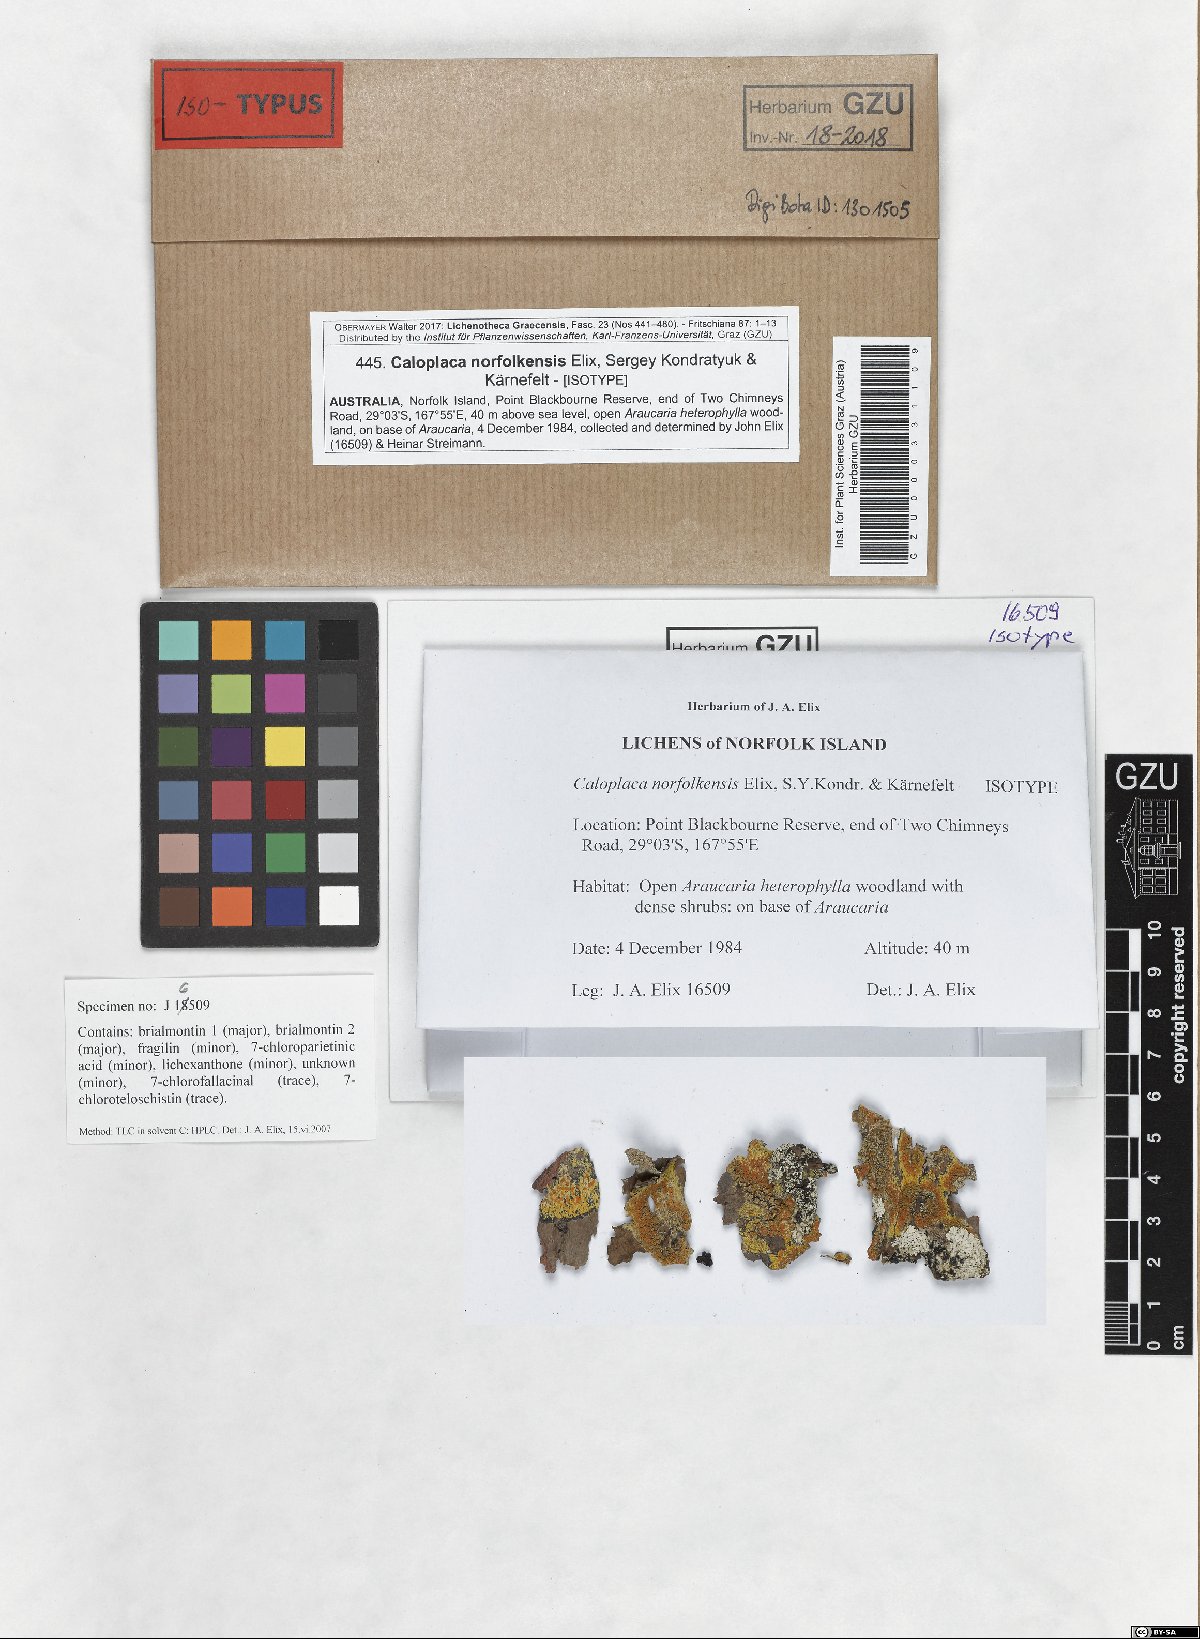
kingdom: Fungi
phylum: Ascomycota
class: Lecanoromycetes
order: Teloschistales
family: Teloschistaceae
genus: Caloplaca
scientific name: Caloplaca norfolkensis
